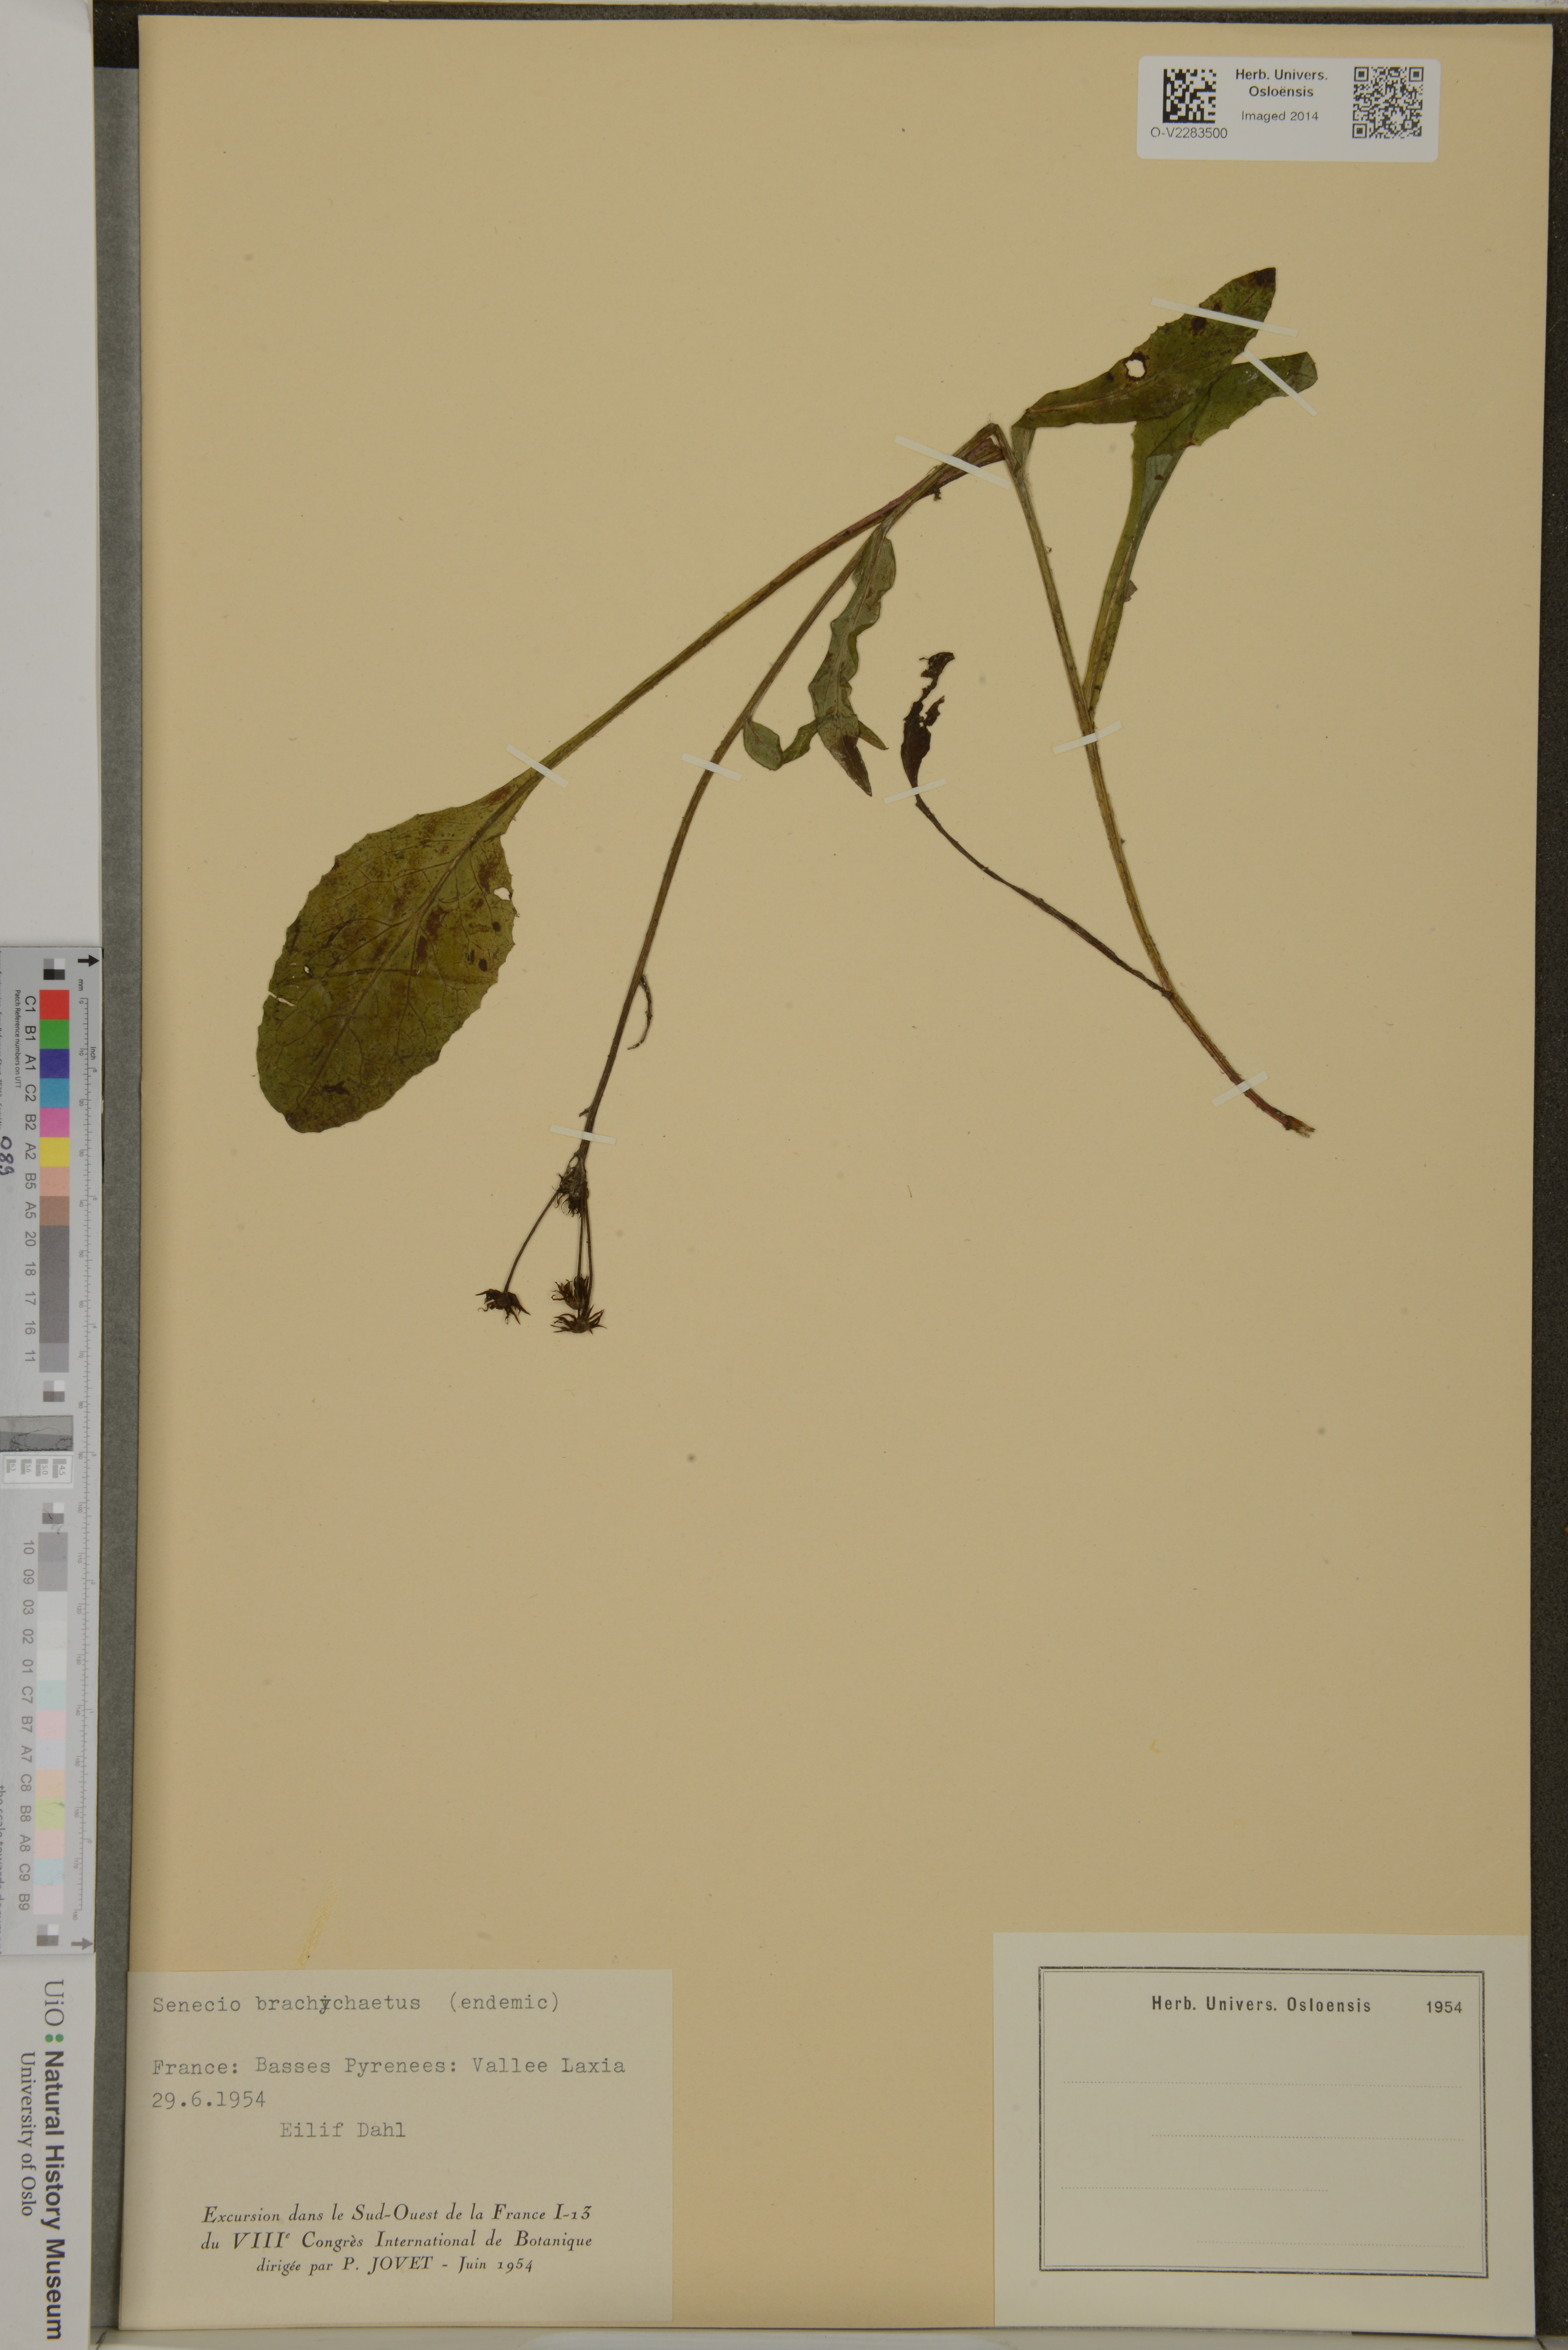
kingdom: Plantae
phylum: Tracheophyta
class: Magnoliopsida
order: Asterales
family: Asteraceae
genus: Tephroseris
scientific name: Tephroseris
